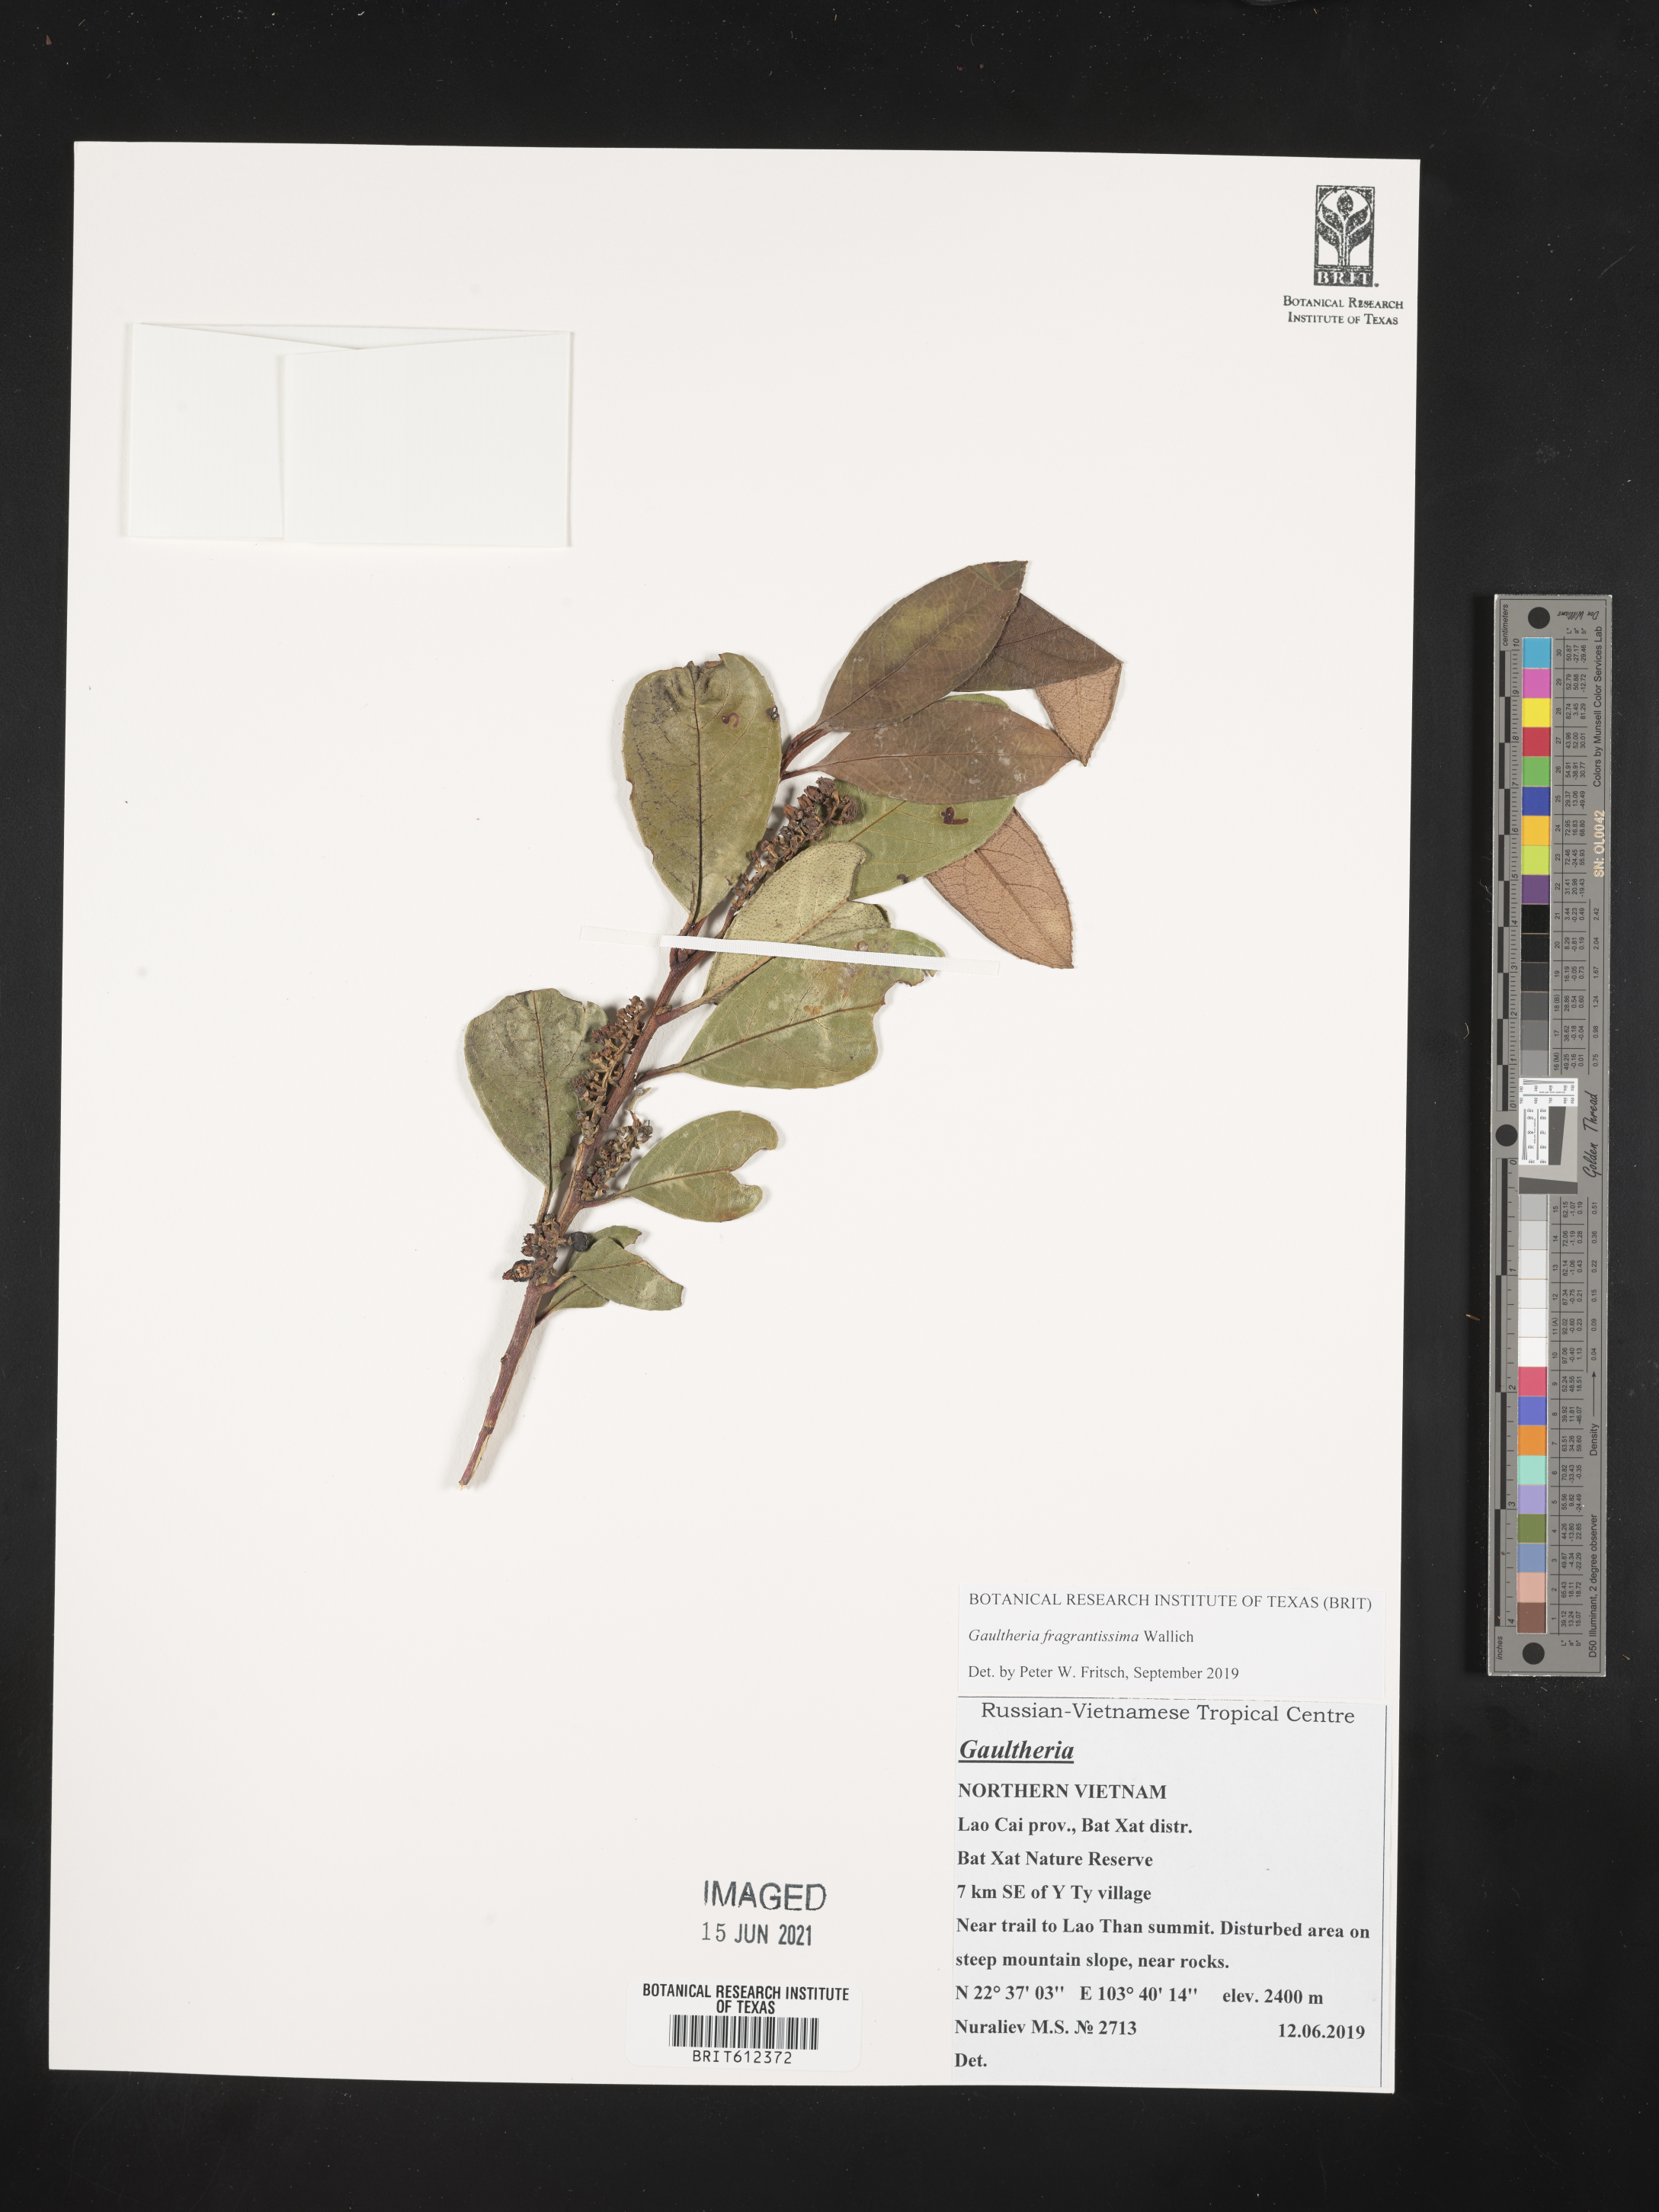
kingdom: Plantae
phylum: Tracheophyta
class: Magnoliopsida
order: Ericales
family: Ericaceae
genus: Gaultheria
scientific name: Gaultheria fragrantissima
